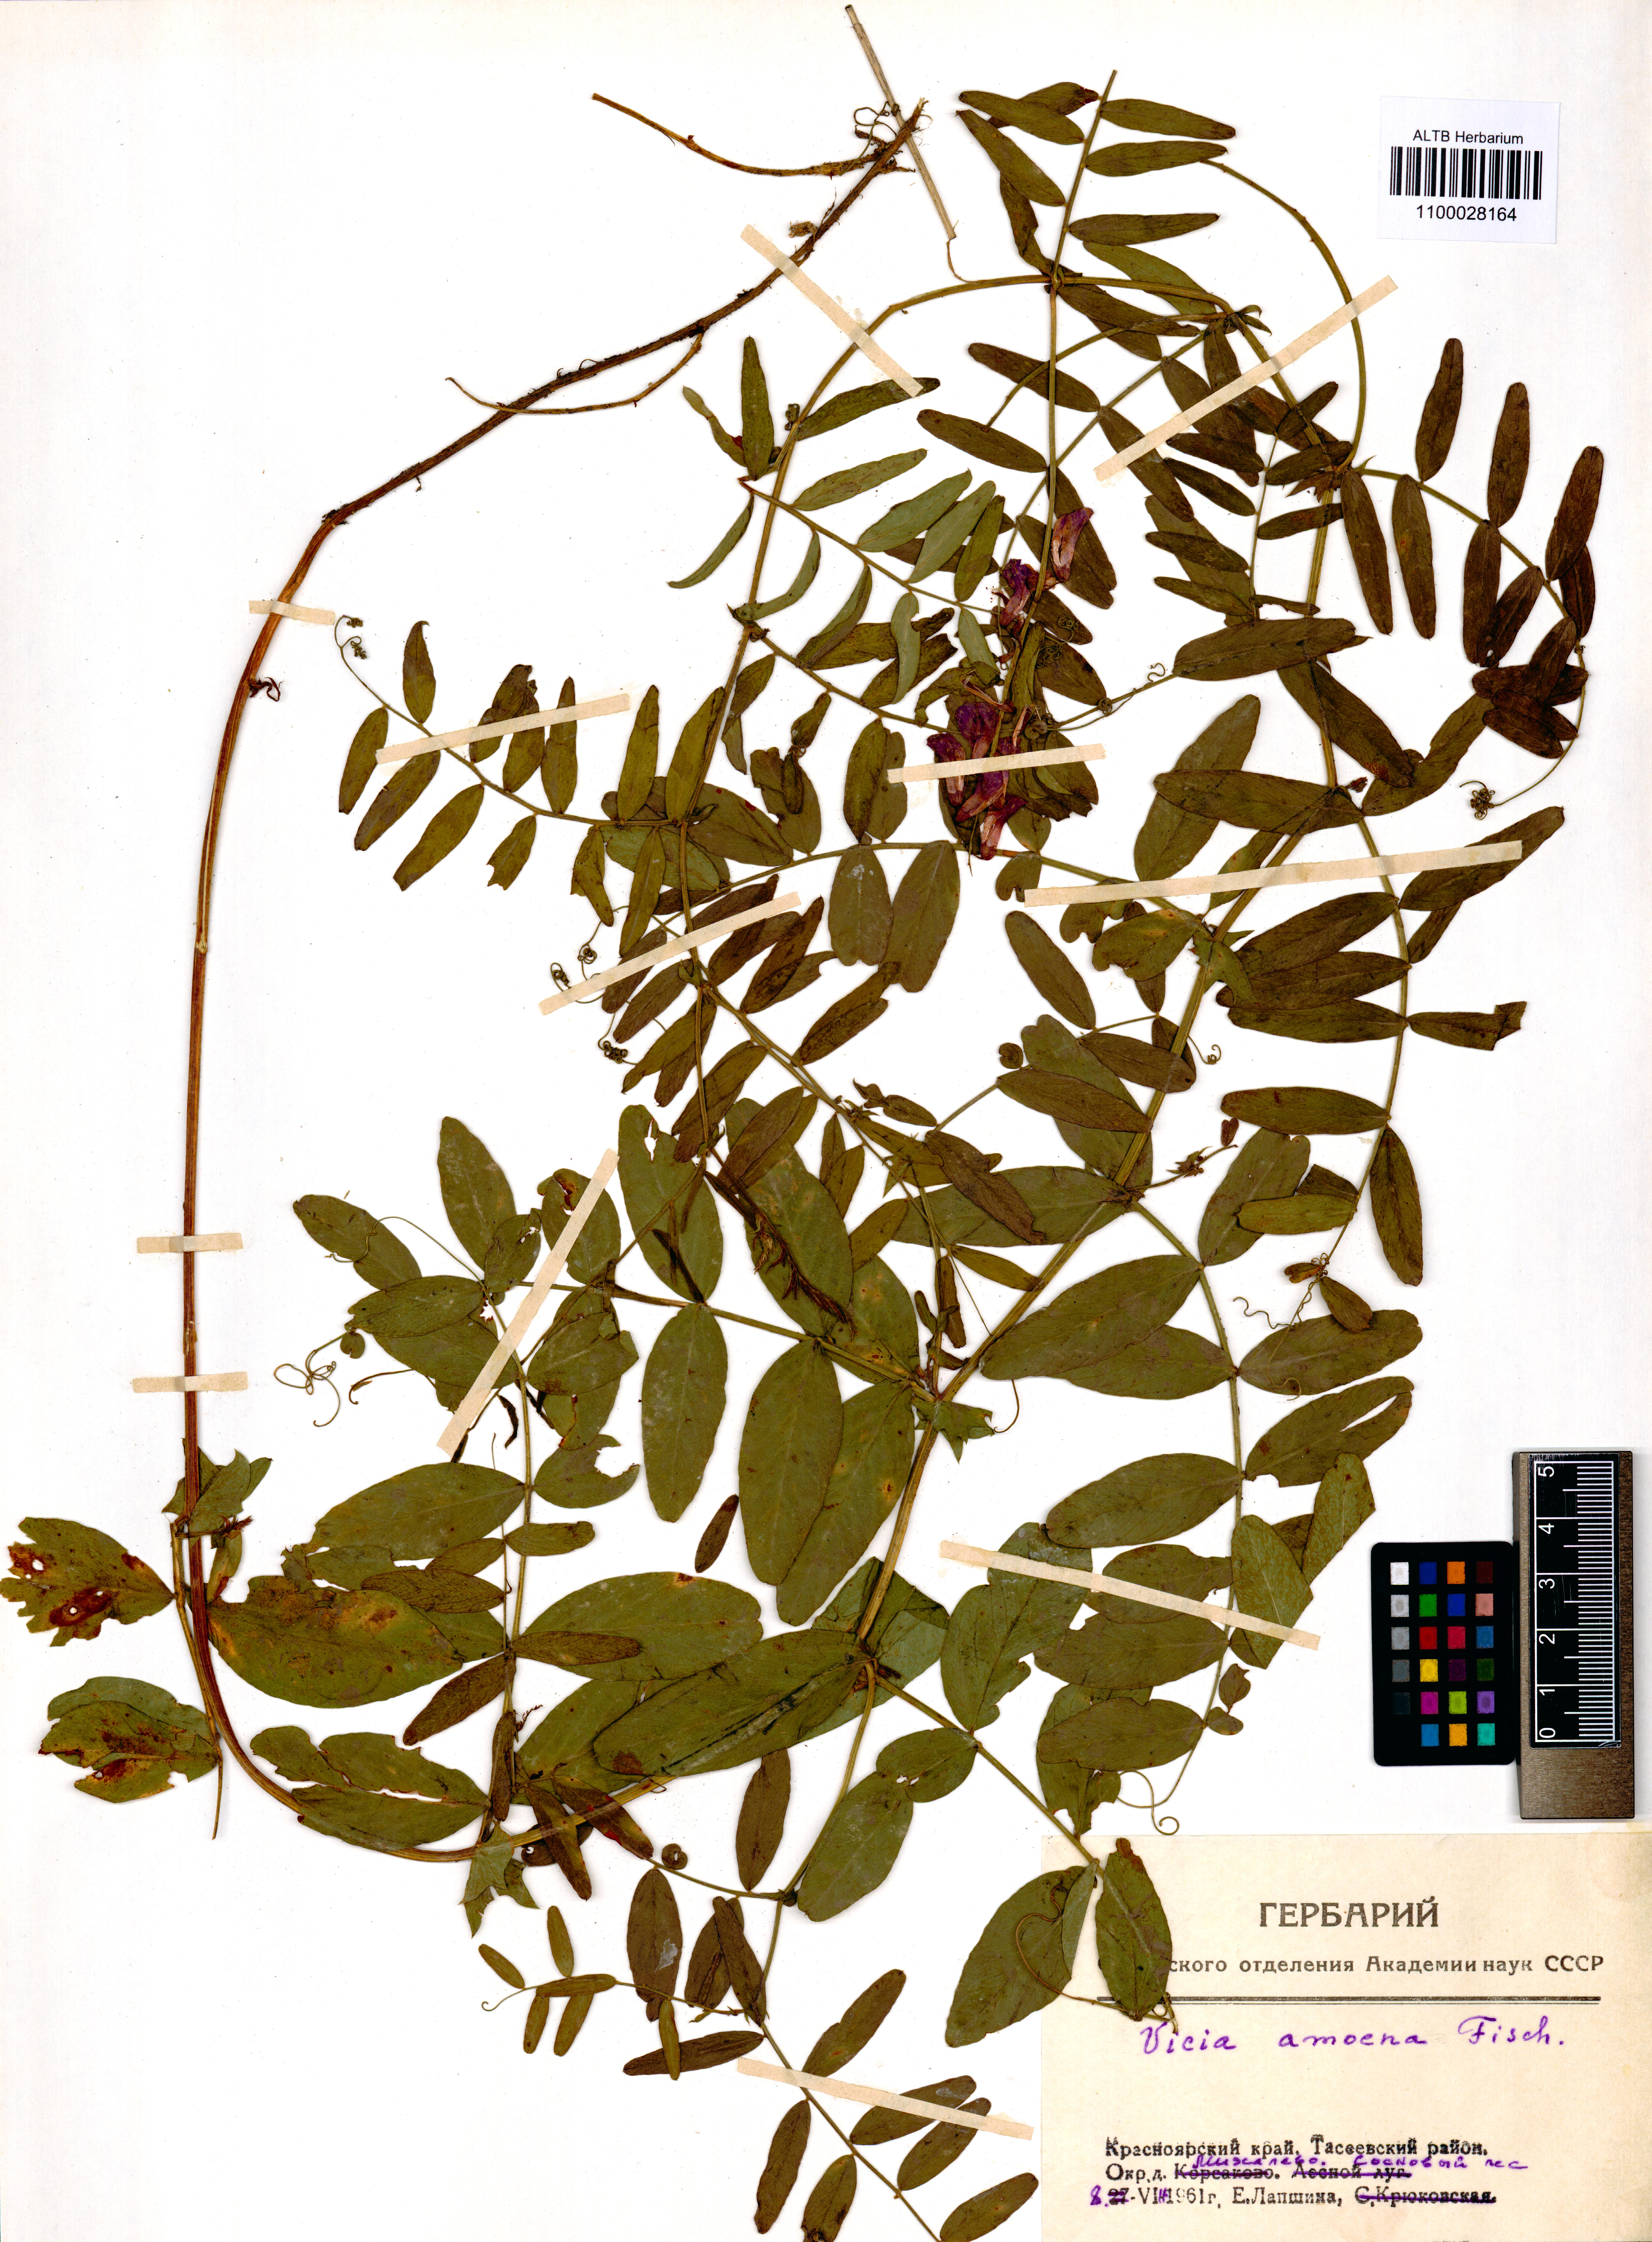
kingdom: Plantae
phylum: Tracheophyta
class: Magnoliopsida
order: Fabales
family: Fabaceae
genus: Vicia
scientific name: Vicia amoena
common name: Cheder ebs
